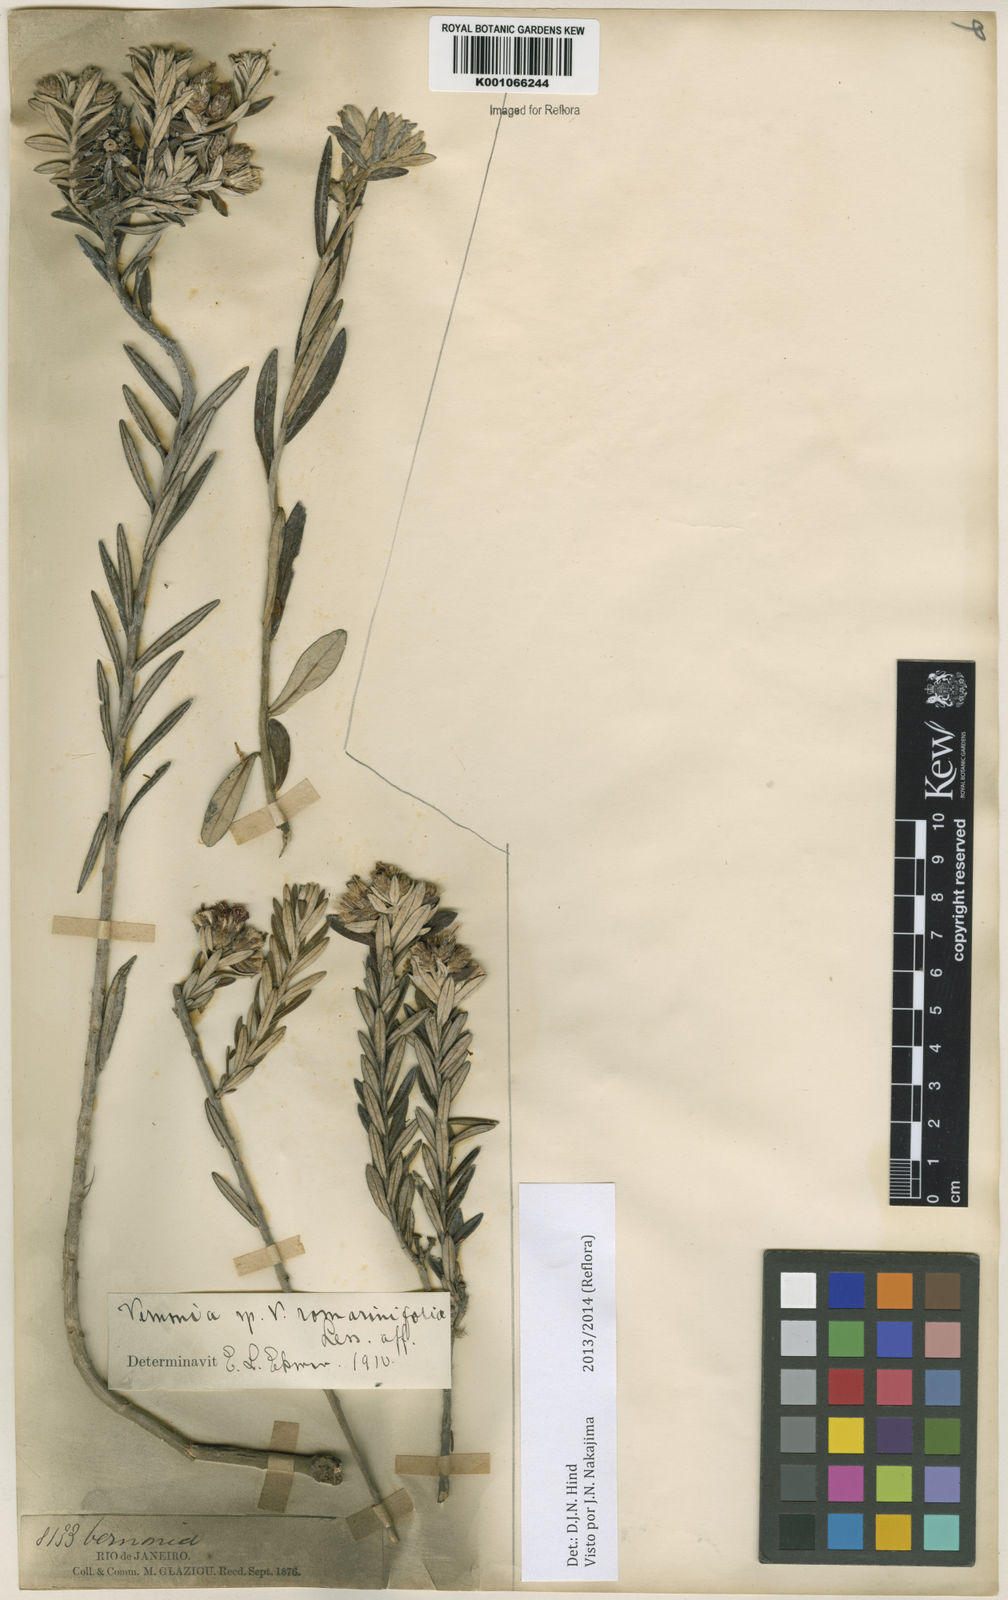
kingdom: Plantae
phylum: Tracheophyta
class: Magnoliopsida
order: Asterales
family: Asteraceae
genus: Lessingianthus
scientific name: Lessingianthus foliosus
